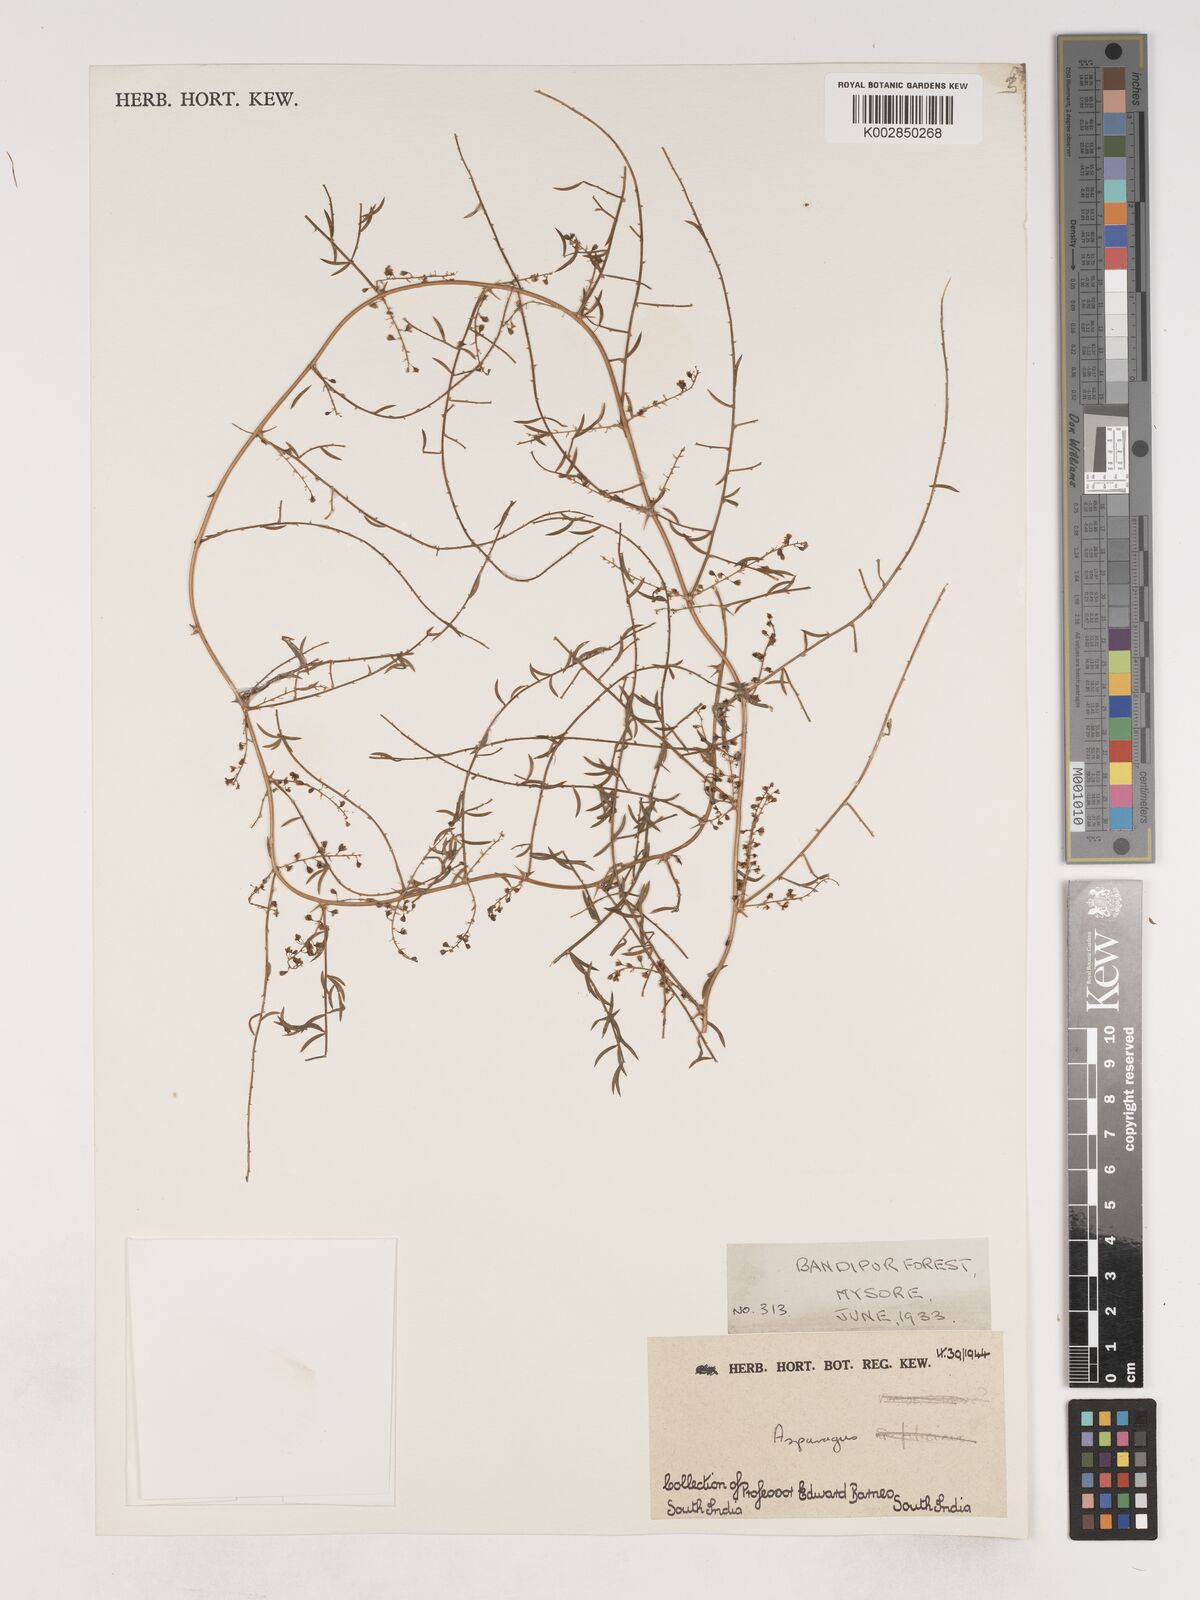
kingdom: Plantae
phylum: Tracheophyta
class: Liliopsida
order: Asparagales
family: Asparagaceae
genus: Asparagus
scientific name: Asparagus
